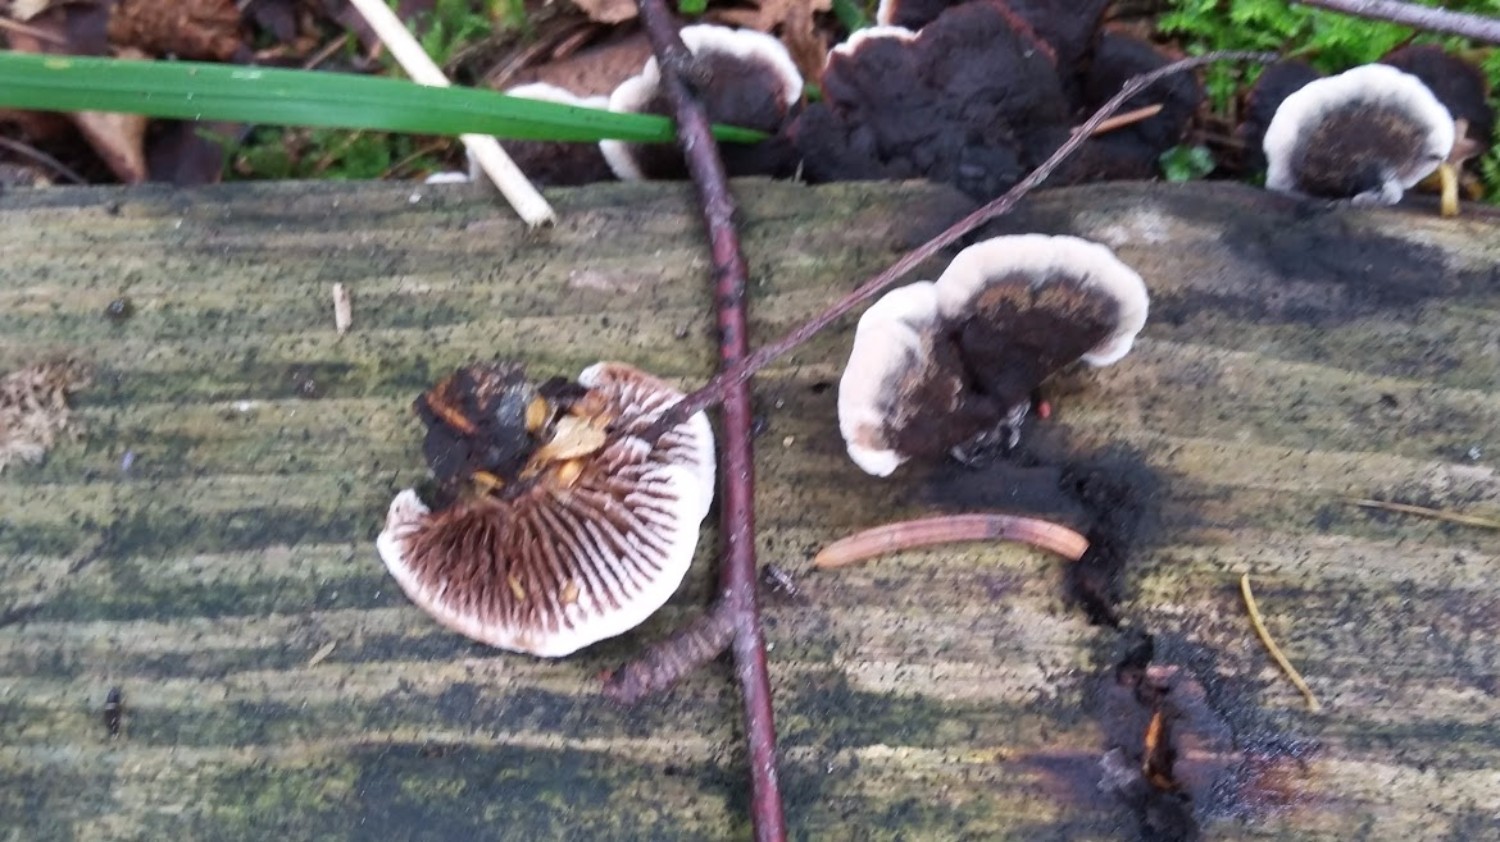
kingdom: Fungi
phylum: Basidiomycota
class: Agaricomycetes
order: Gloeophyllales
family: Gloeophyllaceae
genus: Gloeophyllum
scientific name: Gloeophyllum
